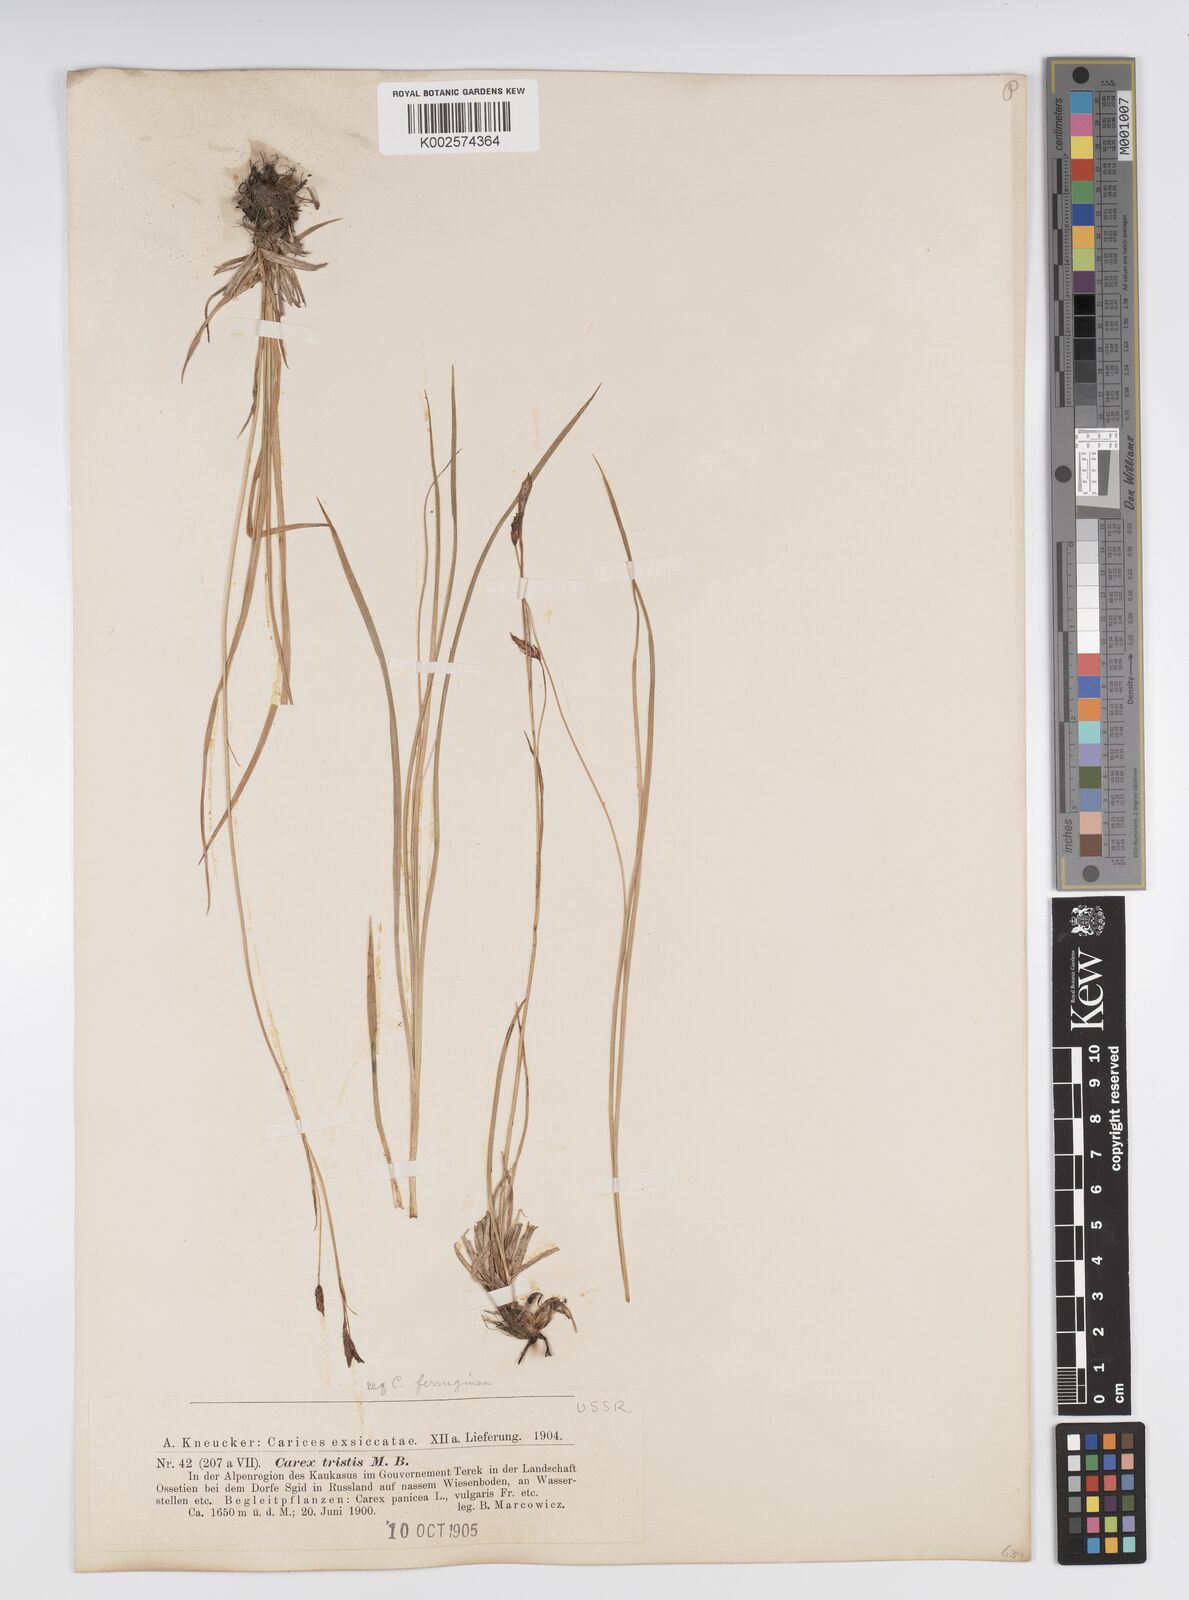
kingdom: Plantae
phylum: Tracheophyta
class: Liliopsida
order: Poales
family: Cyperaceae
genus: Carex
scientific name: Carex firma
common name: Dwarf pillow sedge
